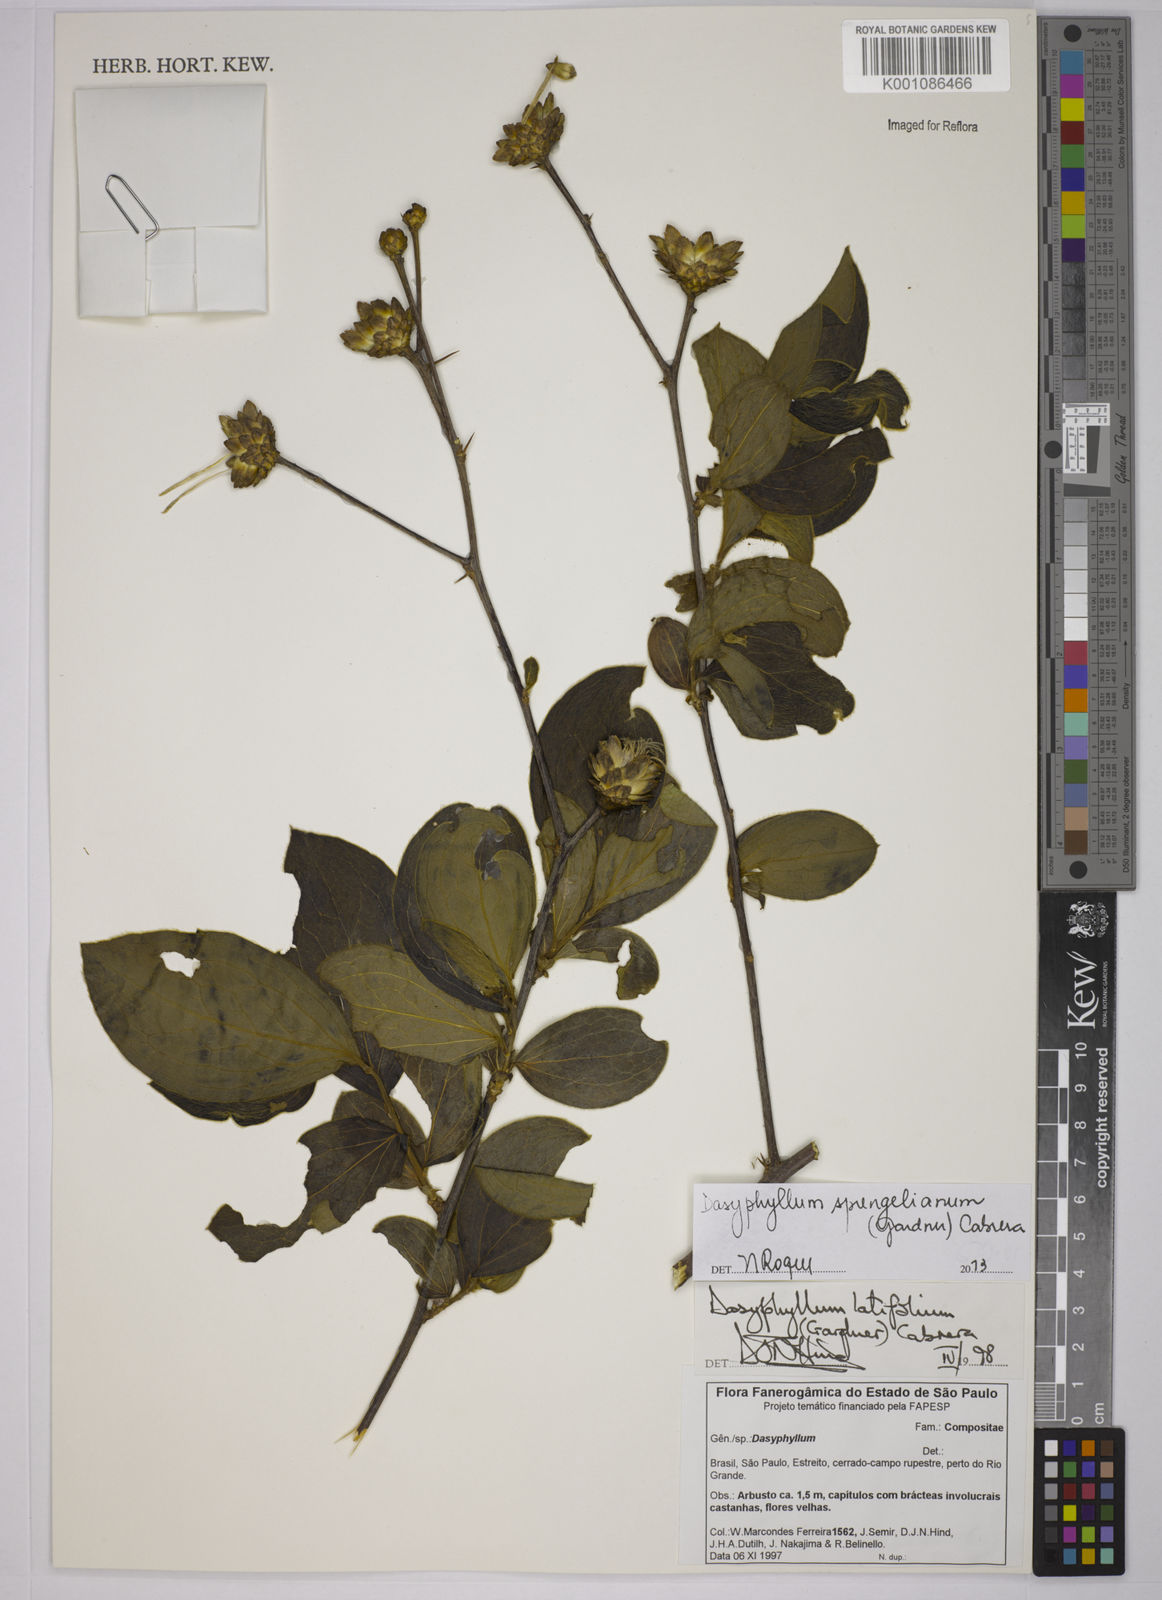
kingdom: Plantae
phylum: Tracheophyta
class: Magnoliopsida
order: Asterales
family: Asteraceae
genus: Dasyphyllum
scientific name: Dasyphyllum sprengelianum
